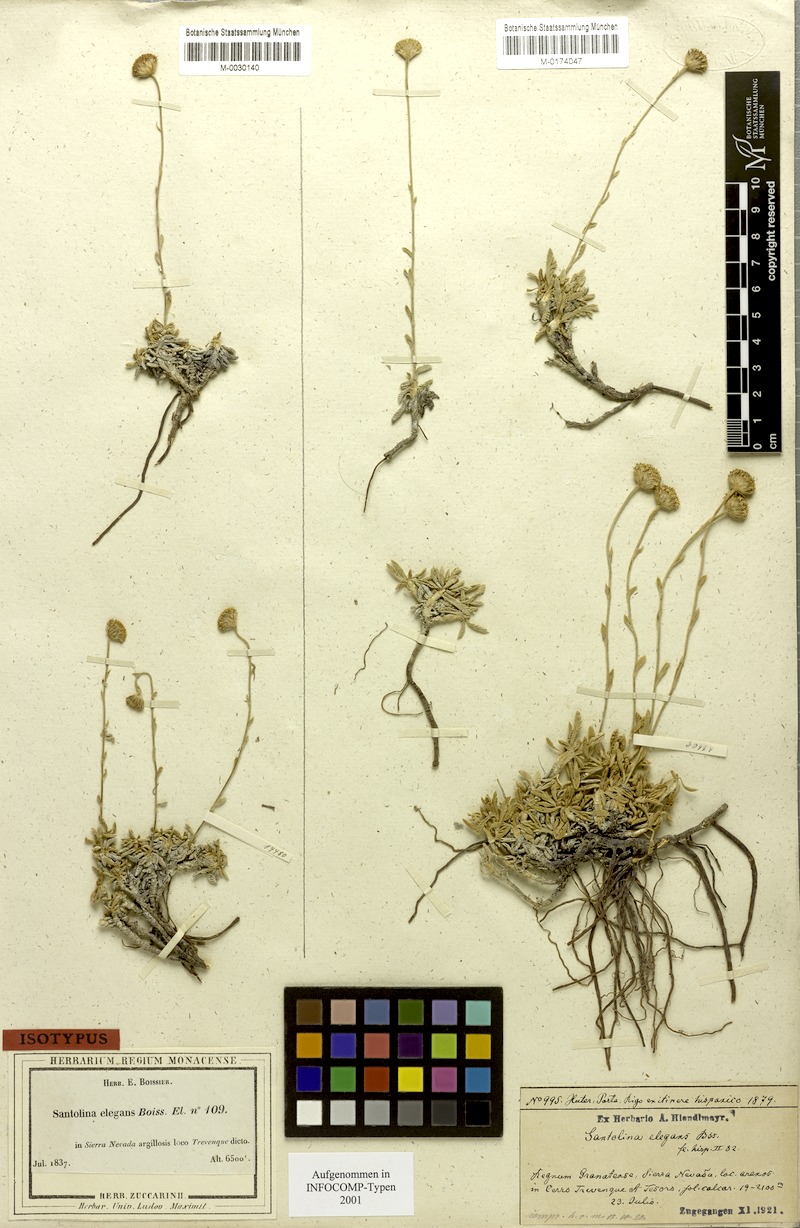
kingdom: Plantae
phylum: Tracheophyta
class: Magnoliopsida
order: Asterales
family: Asteraceae
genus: Santolina
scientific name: Santolina elegans
